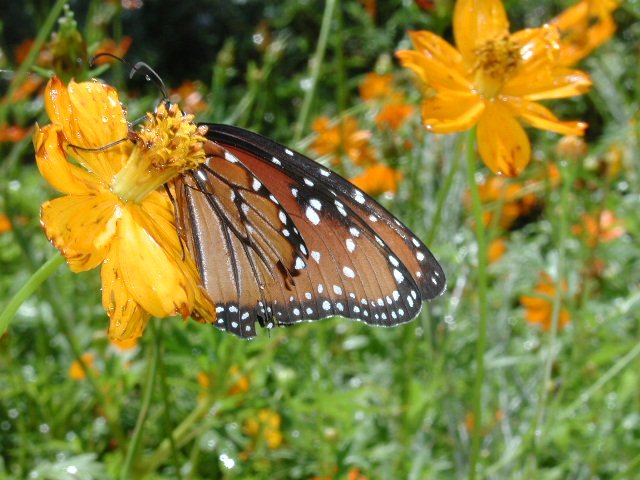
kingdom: Animalia
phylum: Arthropoda
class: Insecta
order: Lepidoptera
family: Nymphalidae
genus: Danaus
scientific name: Danaus gilippus
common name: Queen
